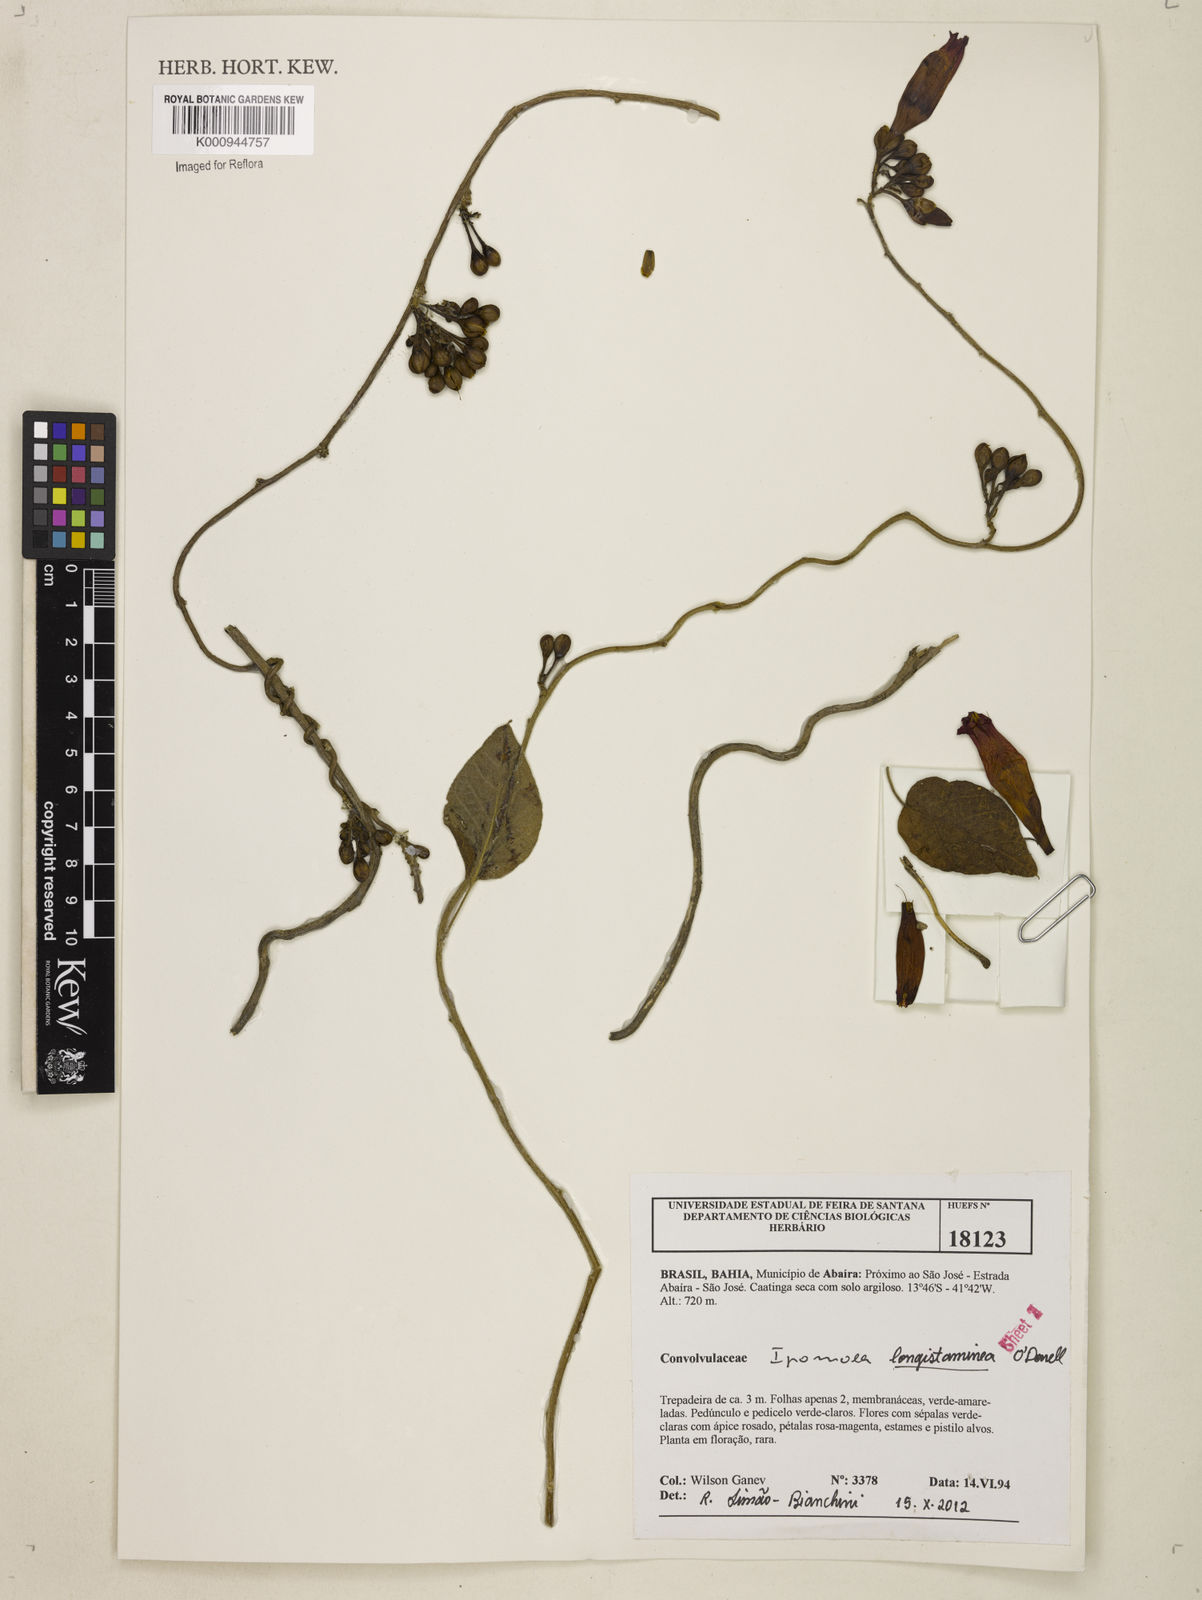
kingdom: Plantae
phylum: Tracheophyta
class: Magnoliopsida
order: Solanales
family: Convolvulaceae
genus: Ipomoea
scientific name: Ipomoea longistaminea
